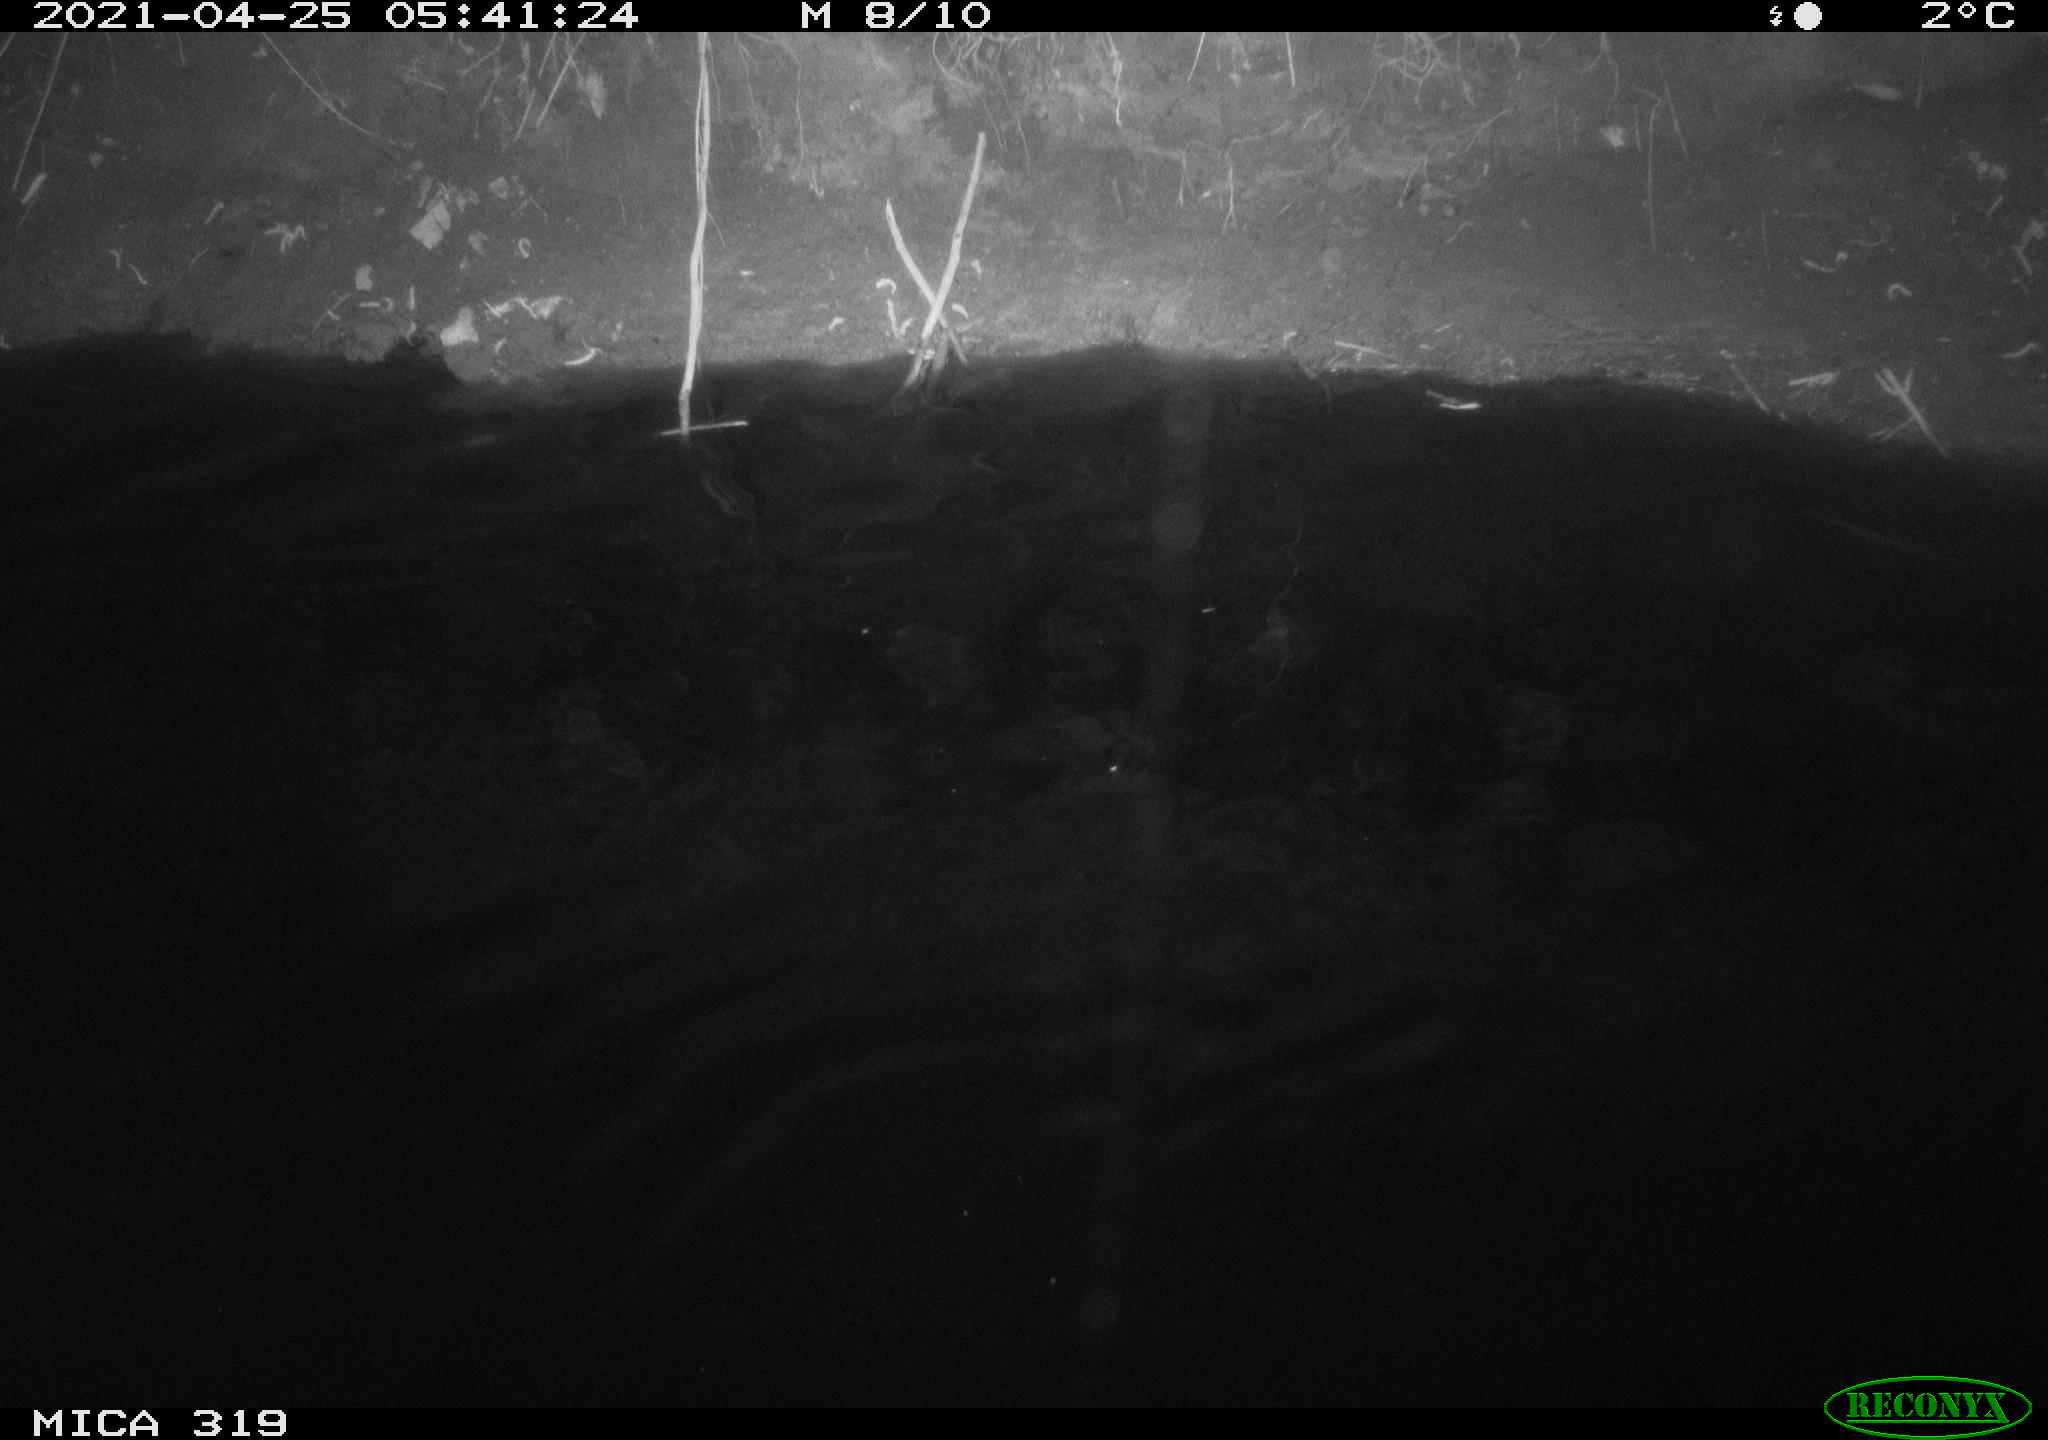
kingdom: Animalia
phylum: Chordata
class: Aves
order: Anseriformes
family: Anatidae
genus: Anas
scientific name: Anas platyrhynchos
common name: Mallard
